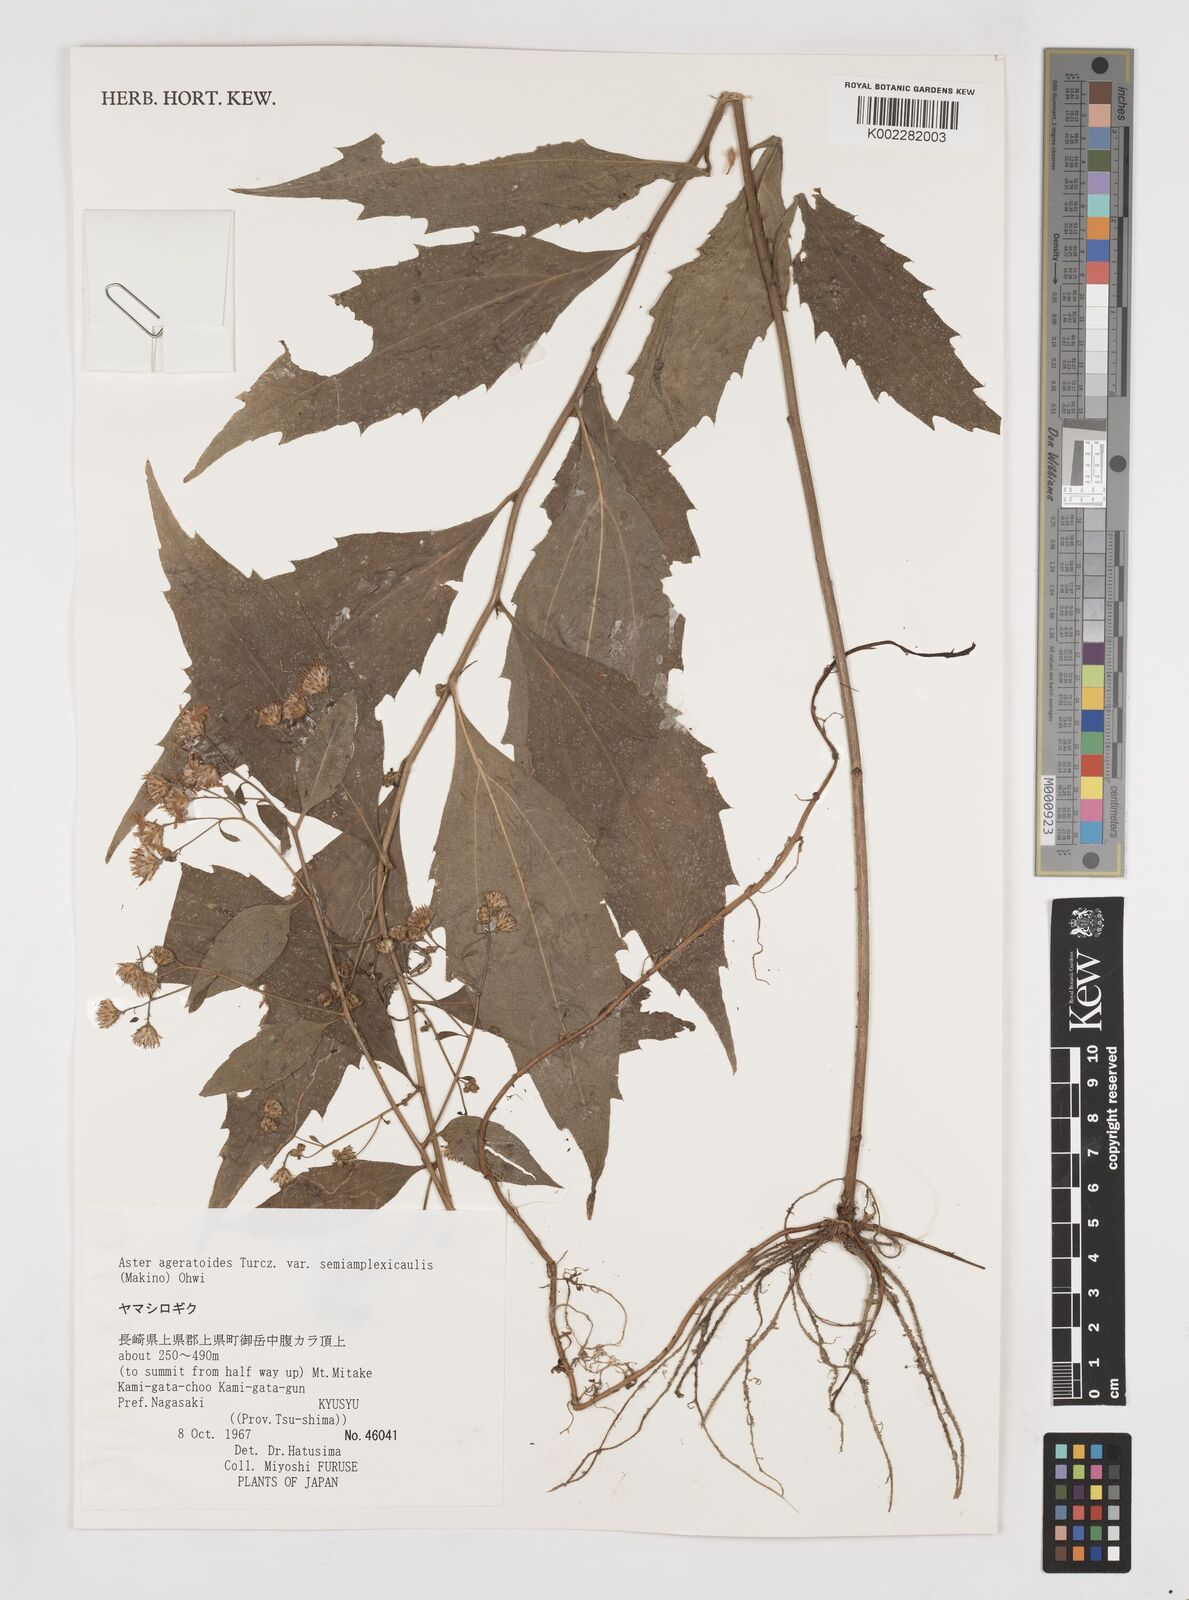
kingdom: Plantae
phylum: Tracheophyta
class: Magnoliopsida
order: Asterales
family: Asteraceae
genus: Aster
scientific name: Aster trinervius
